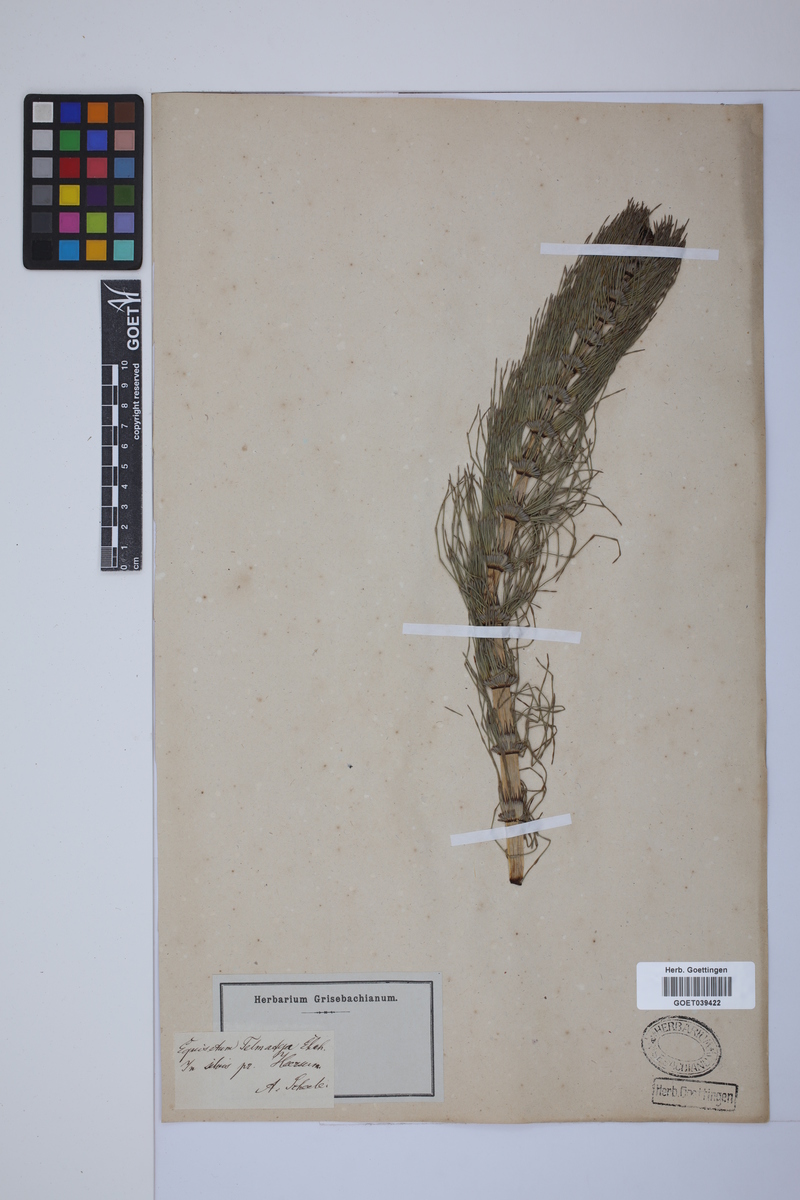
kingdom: Plantae
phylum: Tracheophyta
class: Polypodiopsida
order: Equisetales
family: Equisetaceae
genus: Equisetum
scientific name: Equisetum telmateia
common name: Great horsetail
